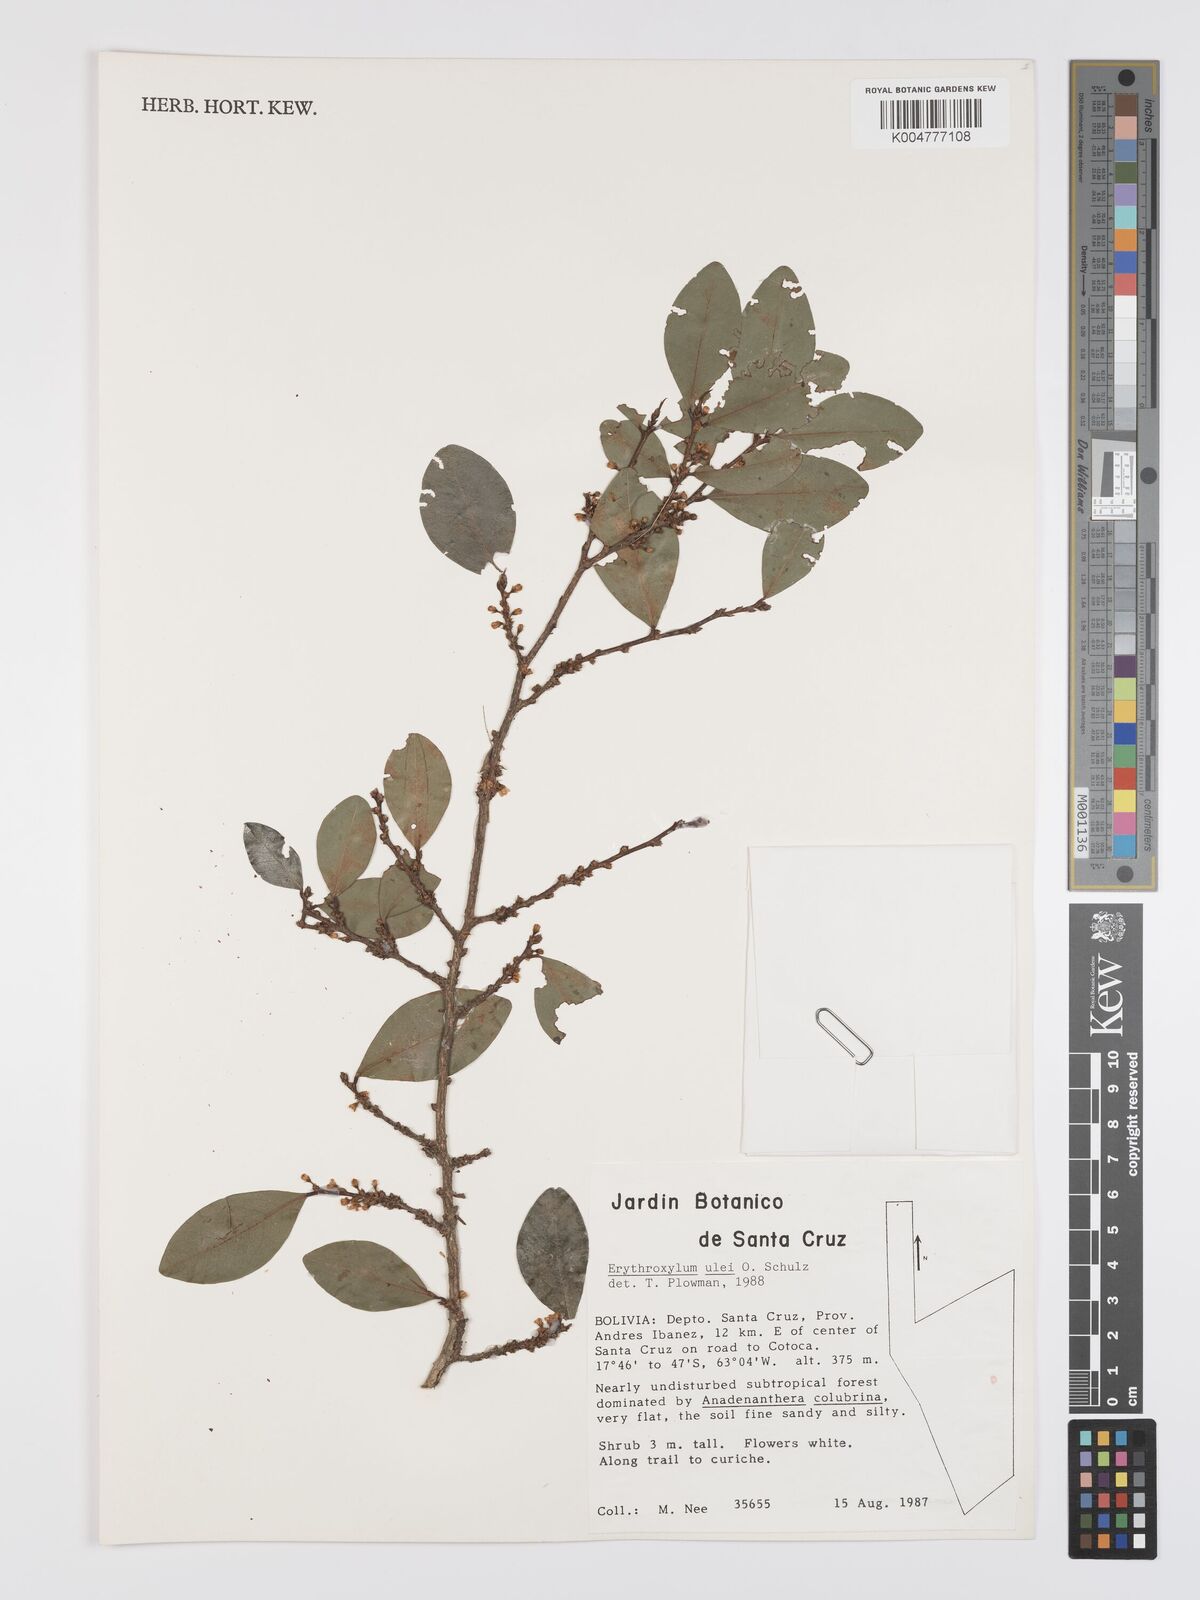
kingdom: Plantae
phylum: Tracheophyta
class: Magnoliopsida
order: Malpighiales
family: Erythroxylaceae
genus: Erythroxylum
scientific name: Erythroxylum ulei
